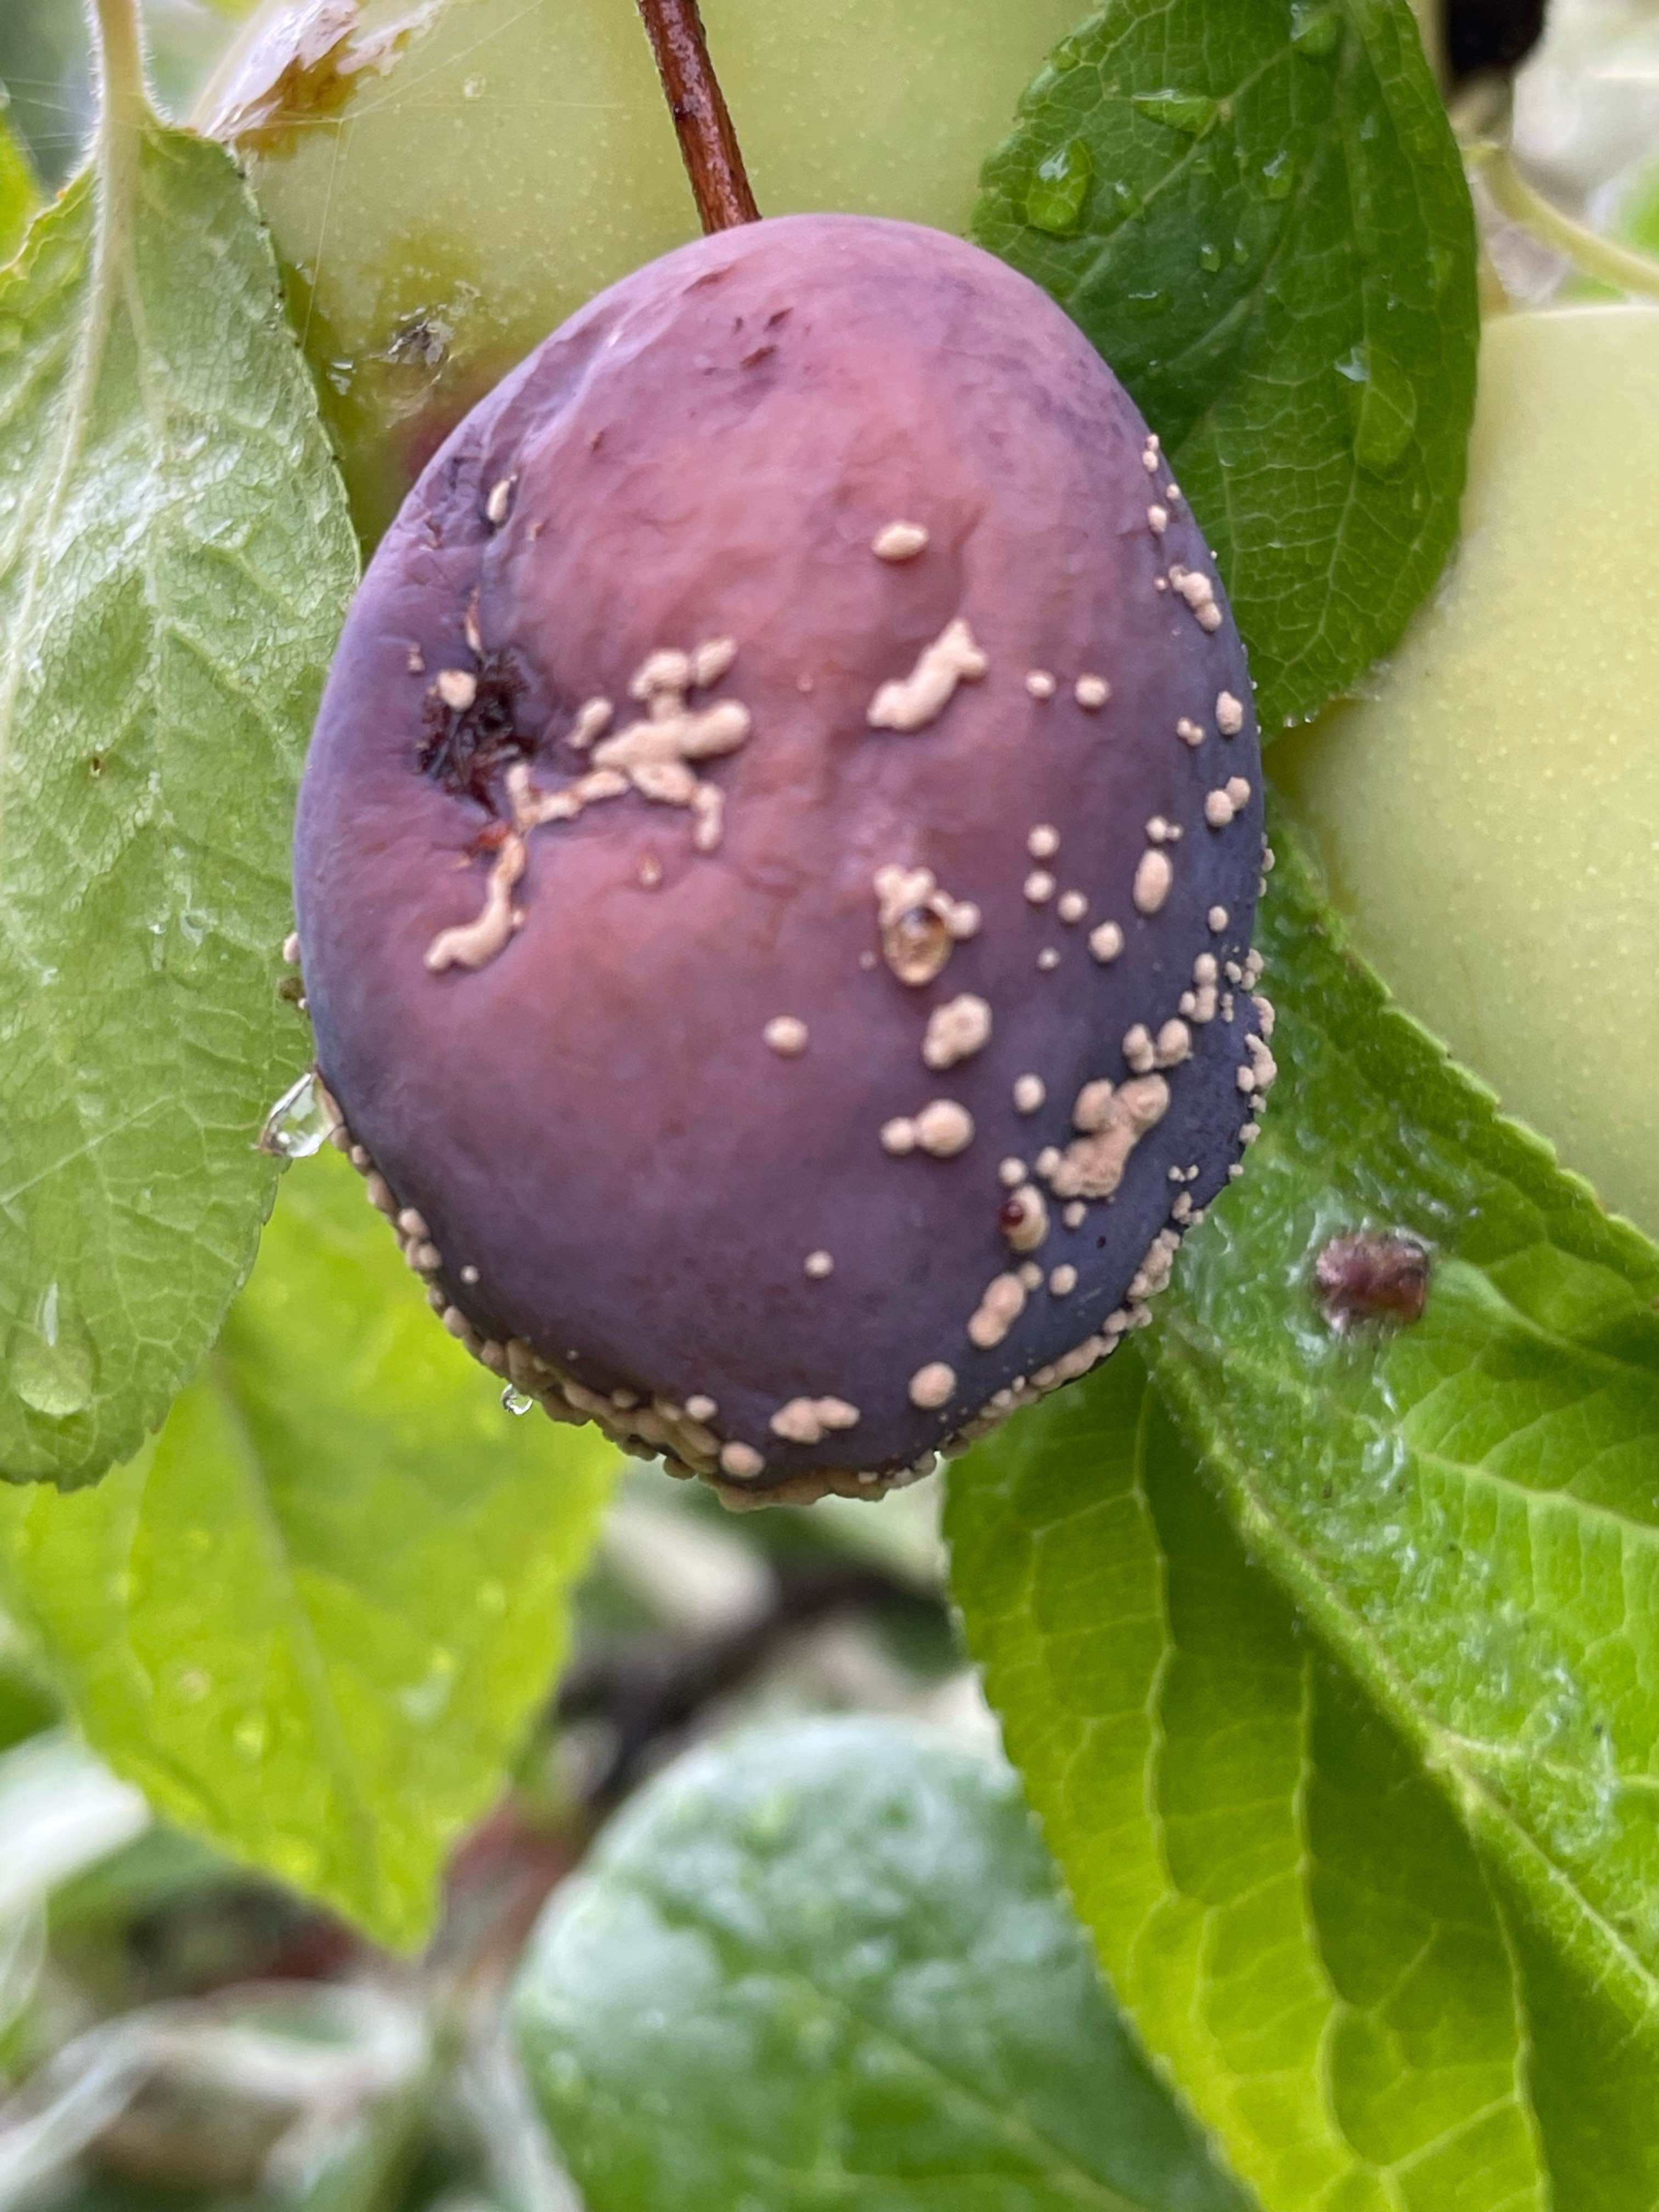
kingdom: Fungi
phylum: Ascomycota
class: Leotiomycetes
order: Helotiales
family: Sclerotiniaceae
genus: Monilinia
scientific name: Monilinia laxa
